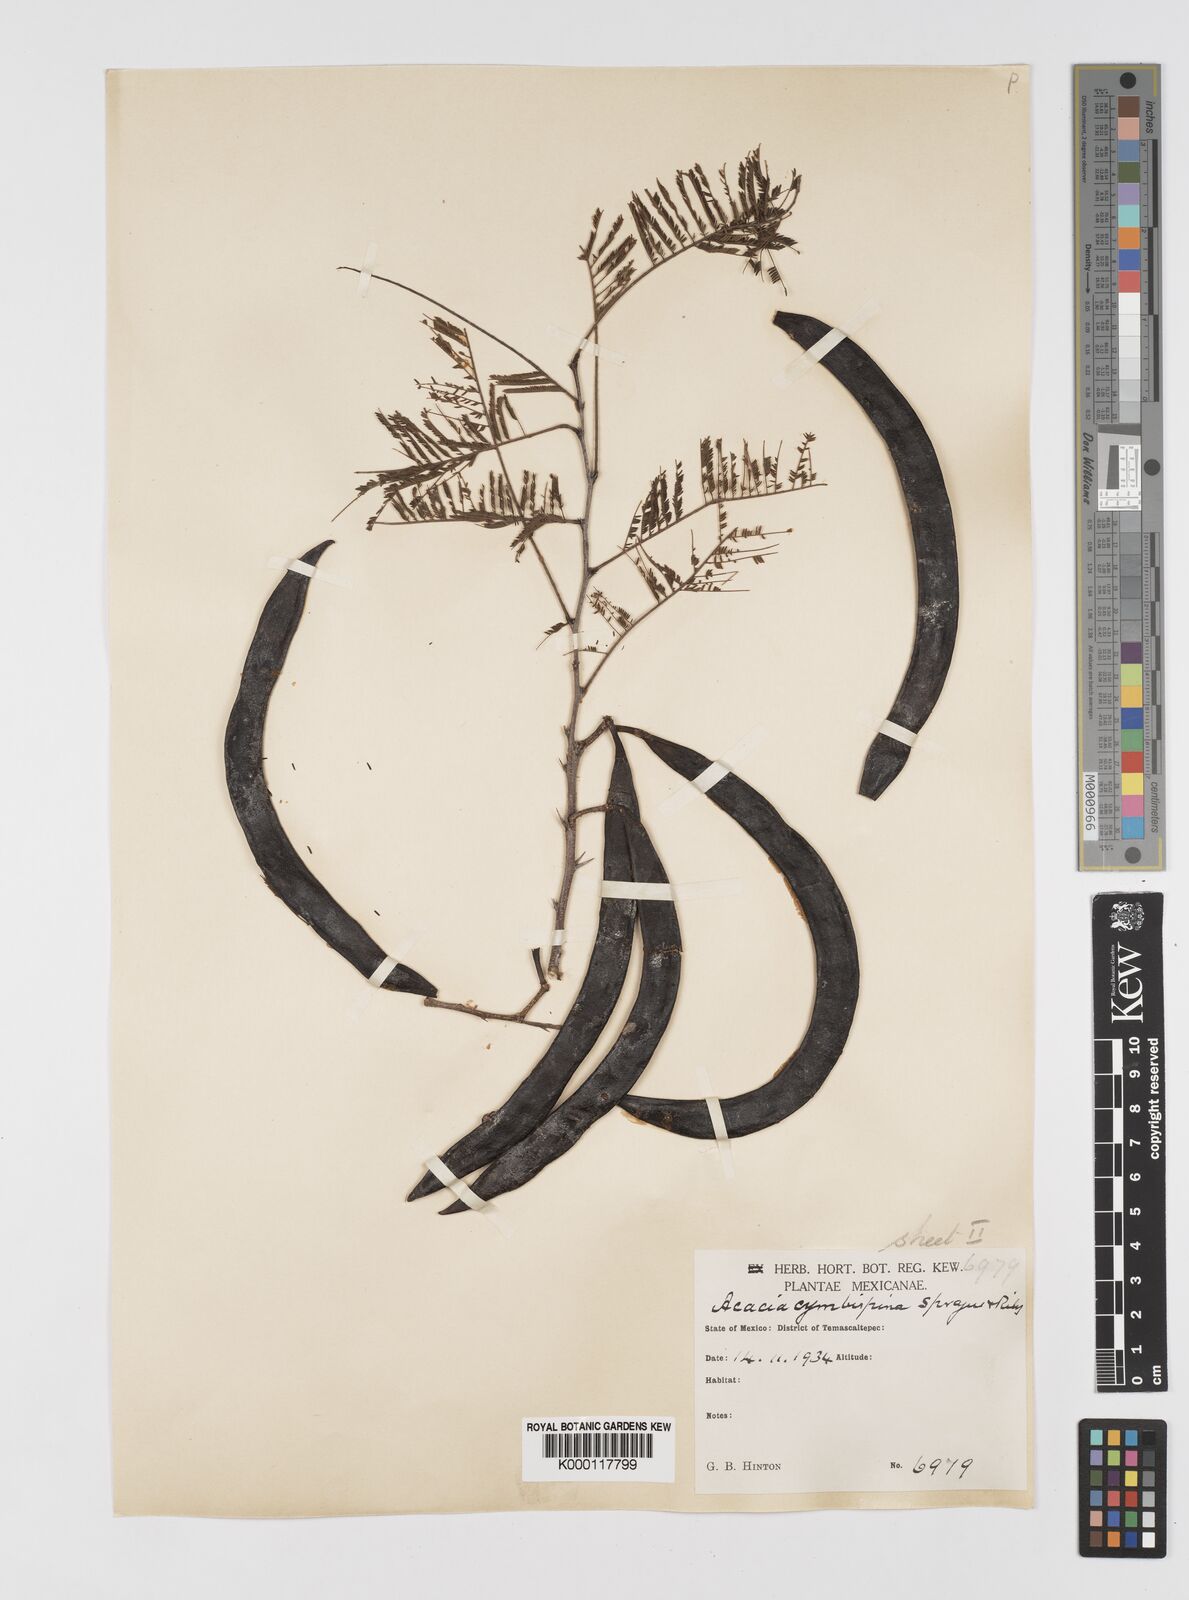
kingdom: Plantae
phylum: Tracheophyta
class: Magnoliopsida
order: Fabales
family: Fabaceae
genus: Vachellia
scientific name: Vachellia campeachiana
